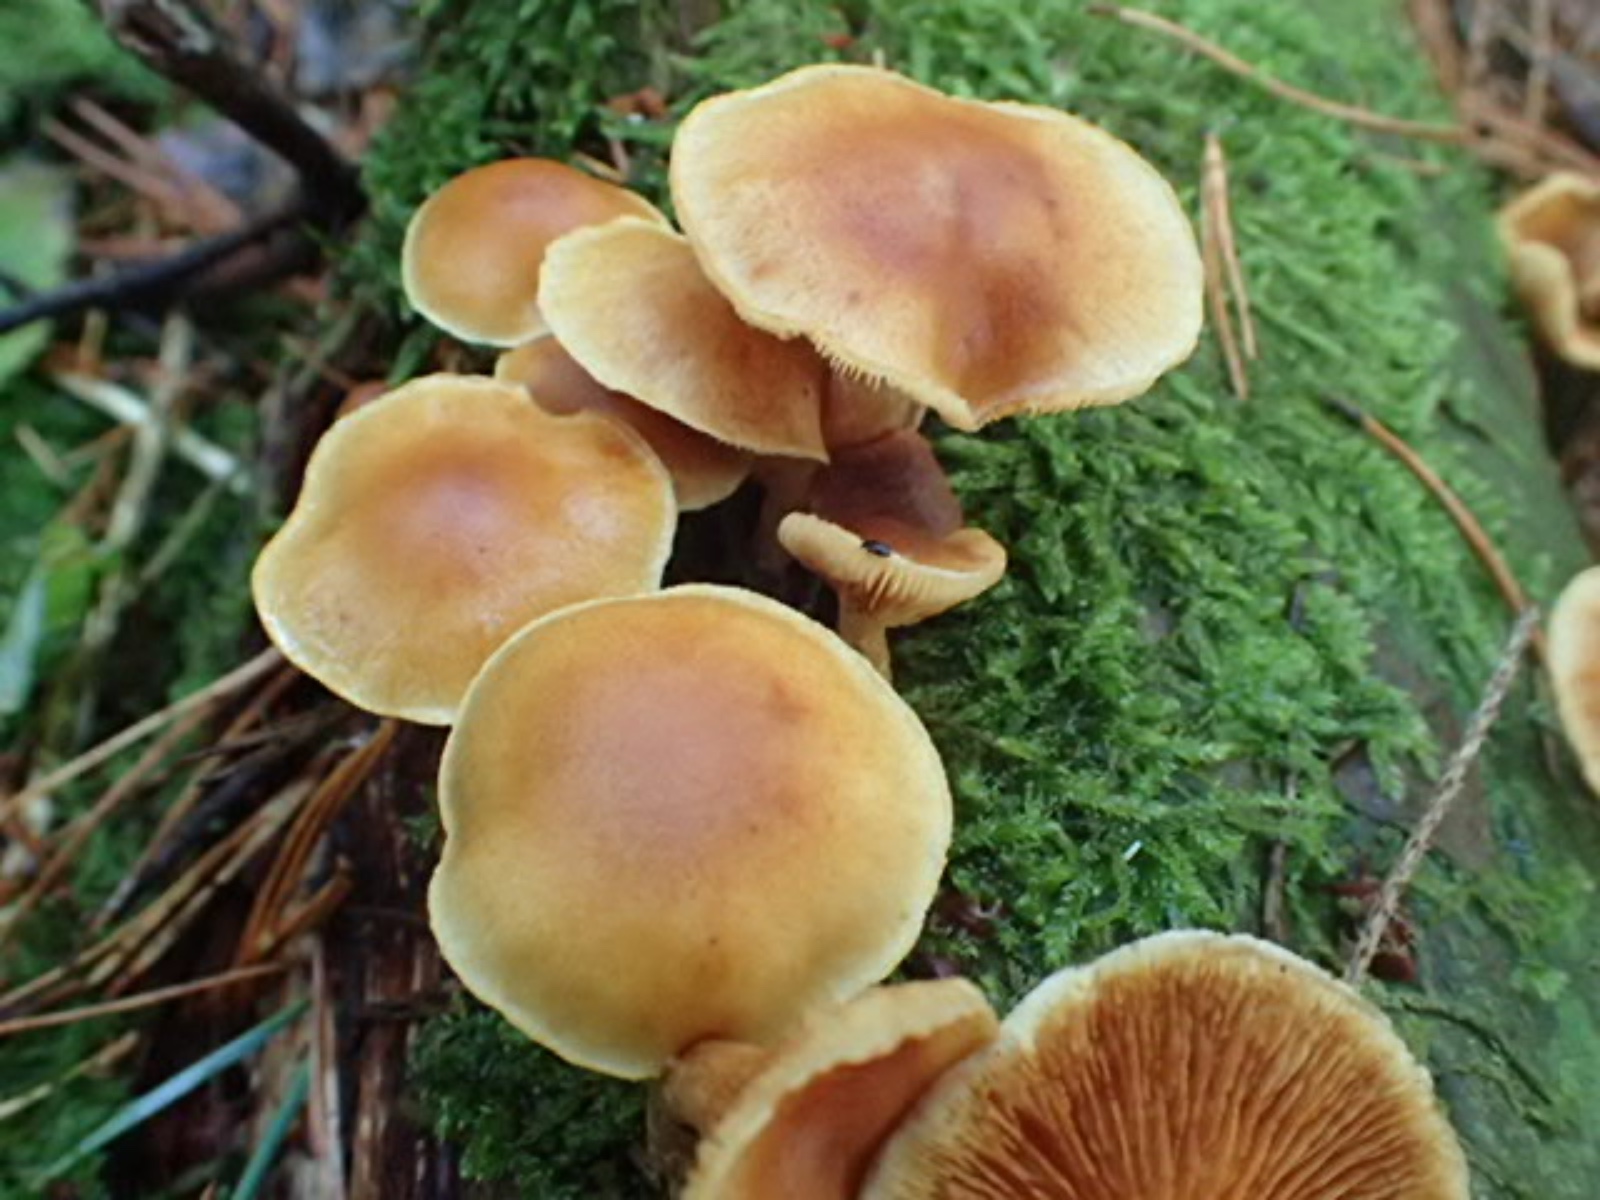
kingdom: Fungi
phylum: Basidiomycota
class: Agaricomycetes
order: Agaricales
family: Hymenogastraceae
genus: Gymnopilus
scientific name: Gymnopilus penetrans
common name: plettet flammehat
